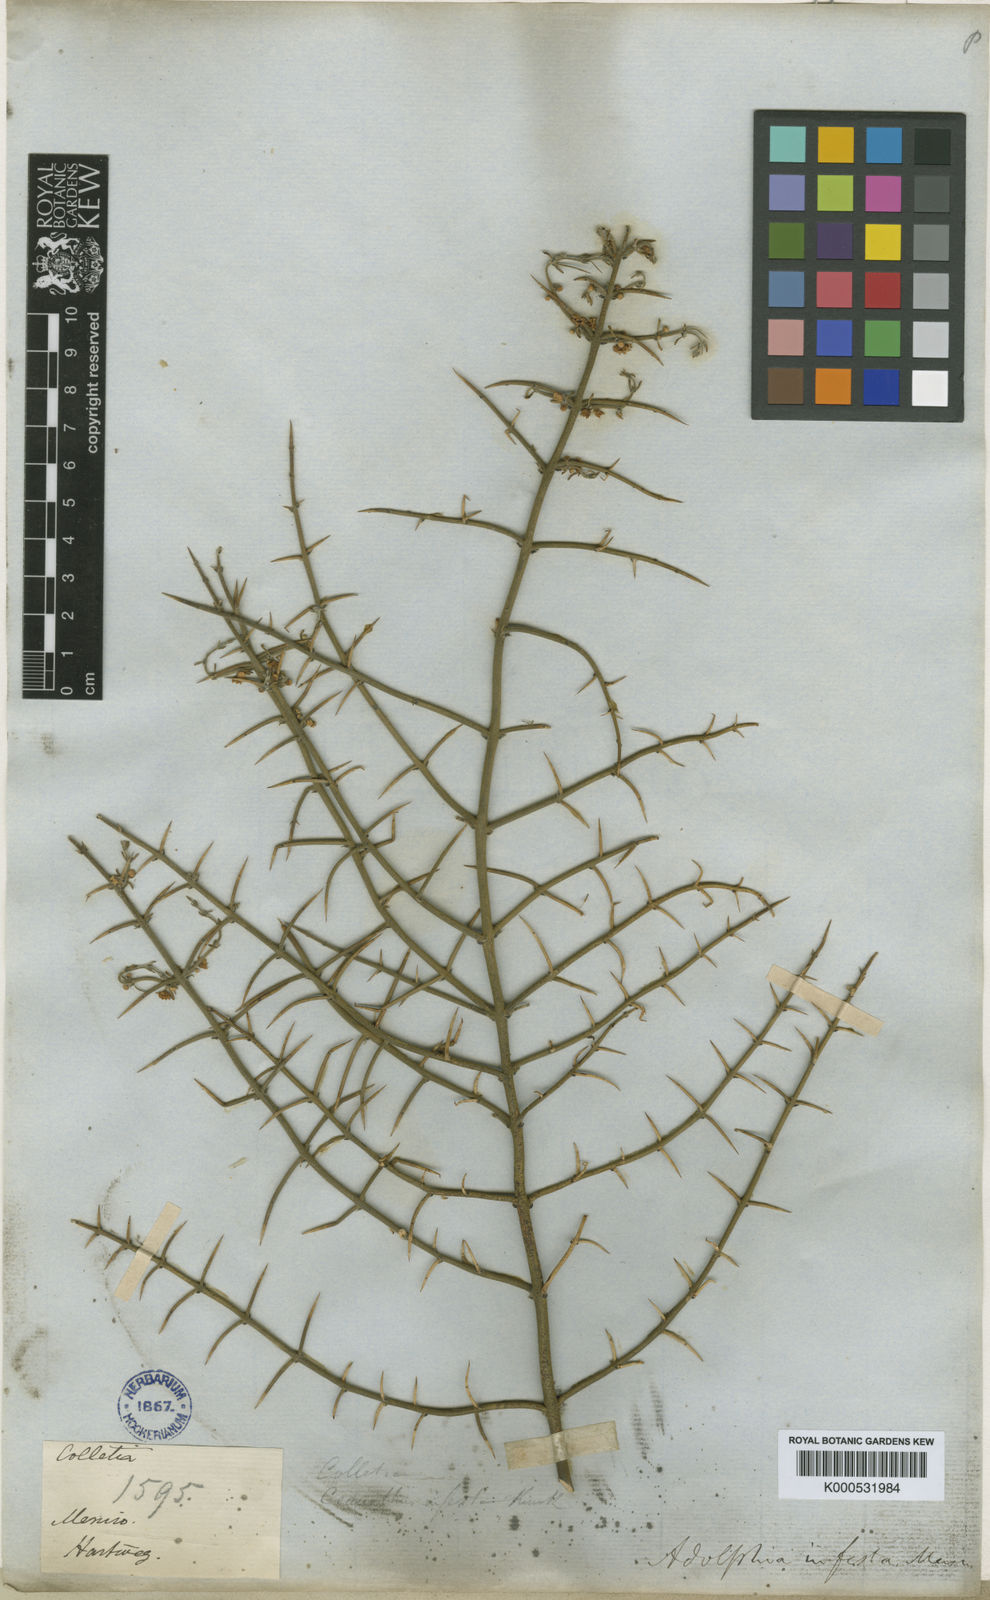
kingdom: Plantae
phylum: Tracheophyta
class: Magnoliopsida
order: Rosales
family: Rhamnaceae
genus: Adolphia
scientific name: Adolphia infesta
